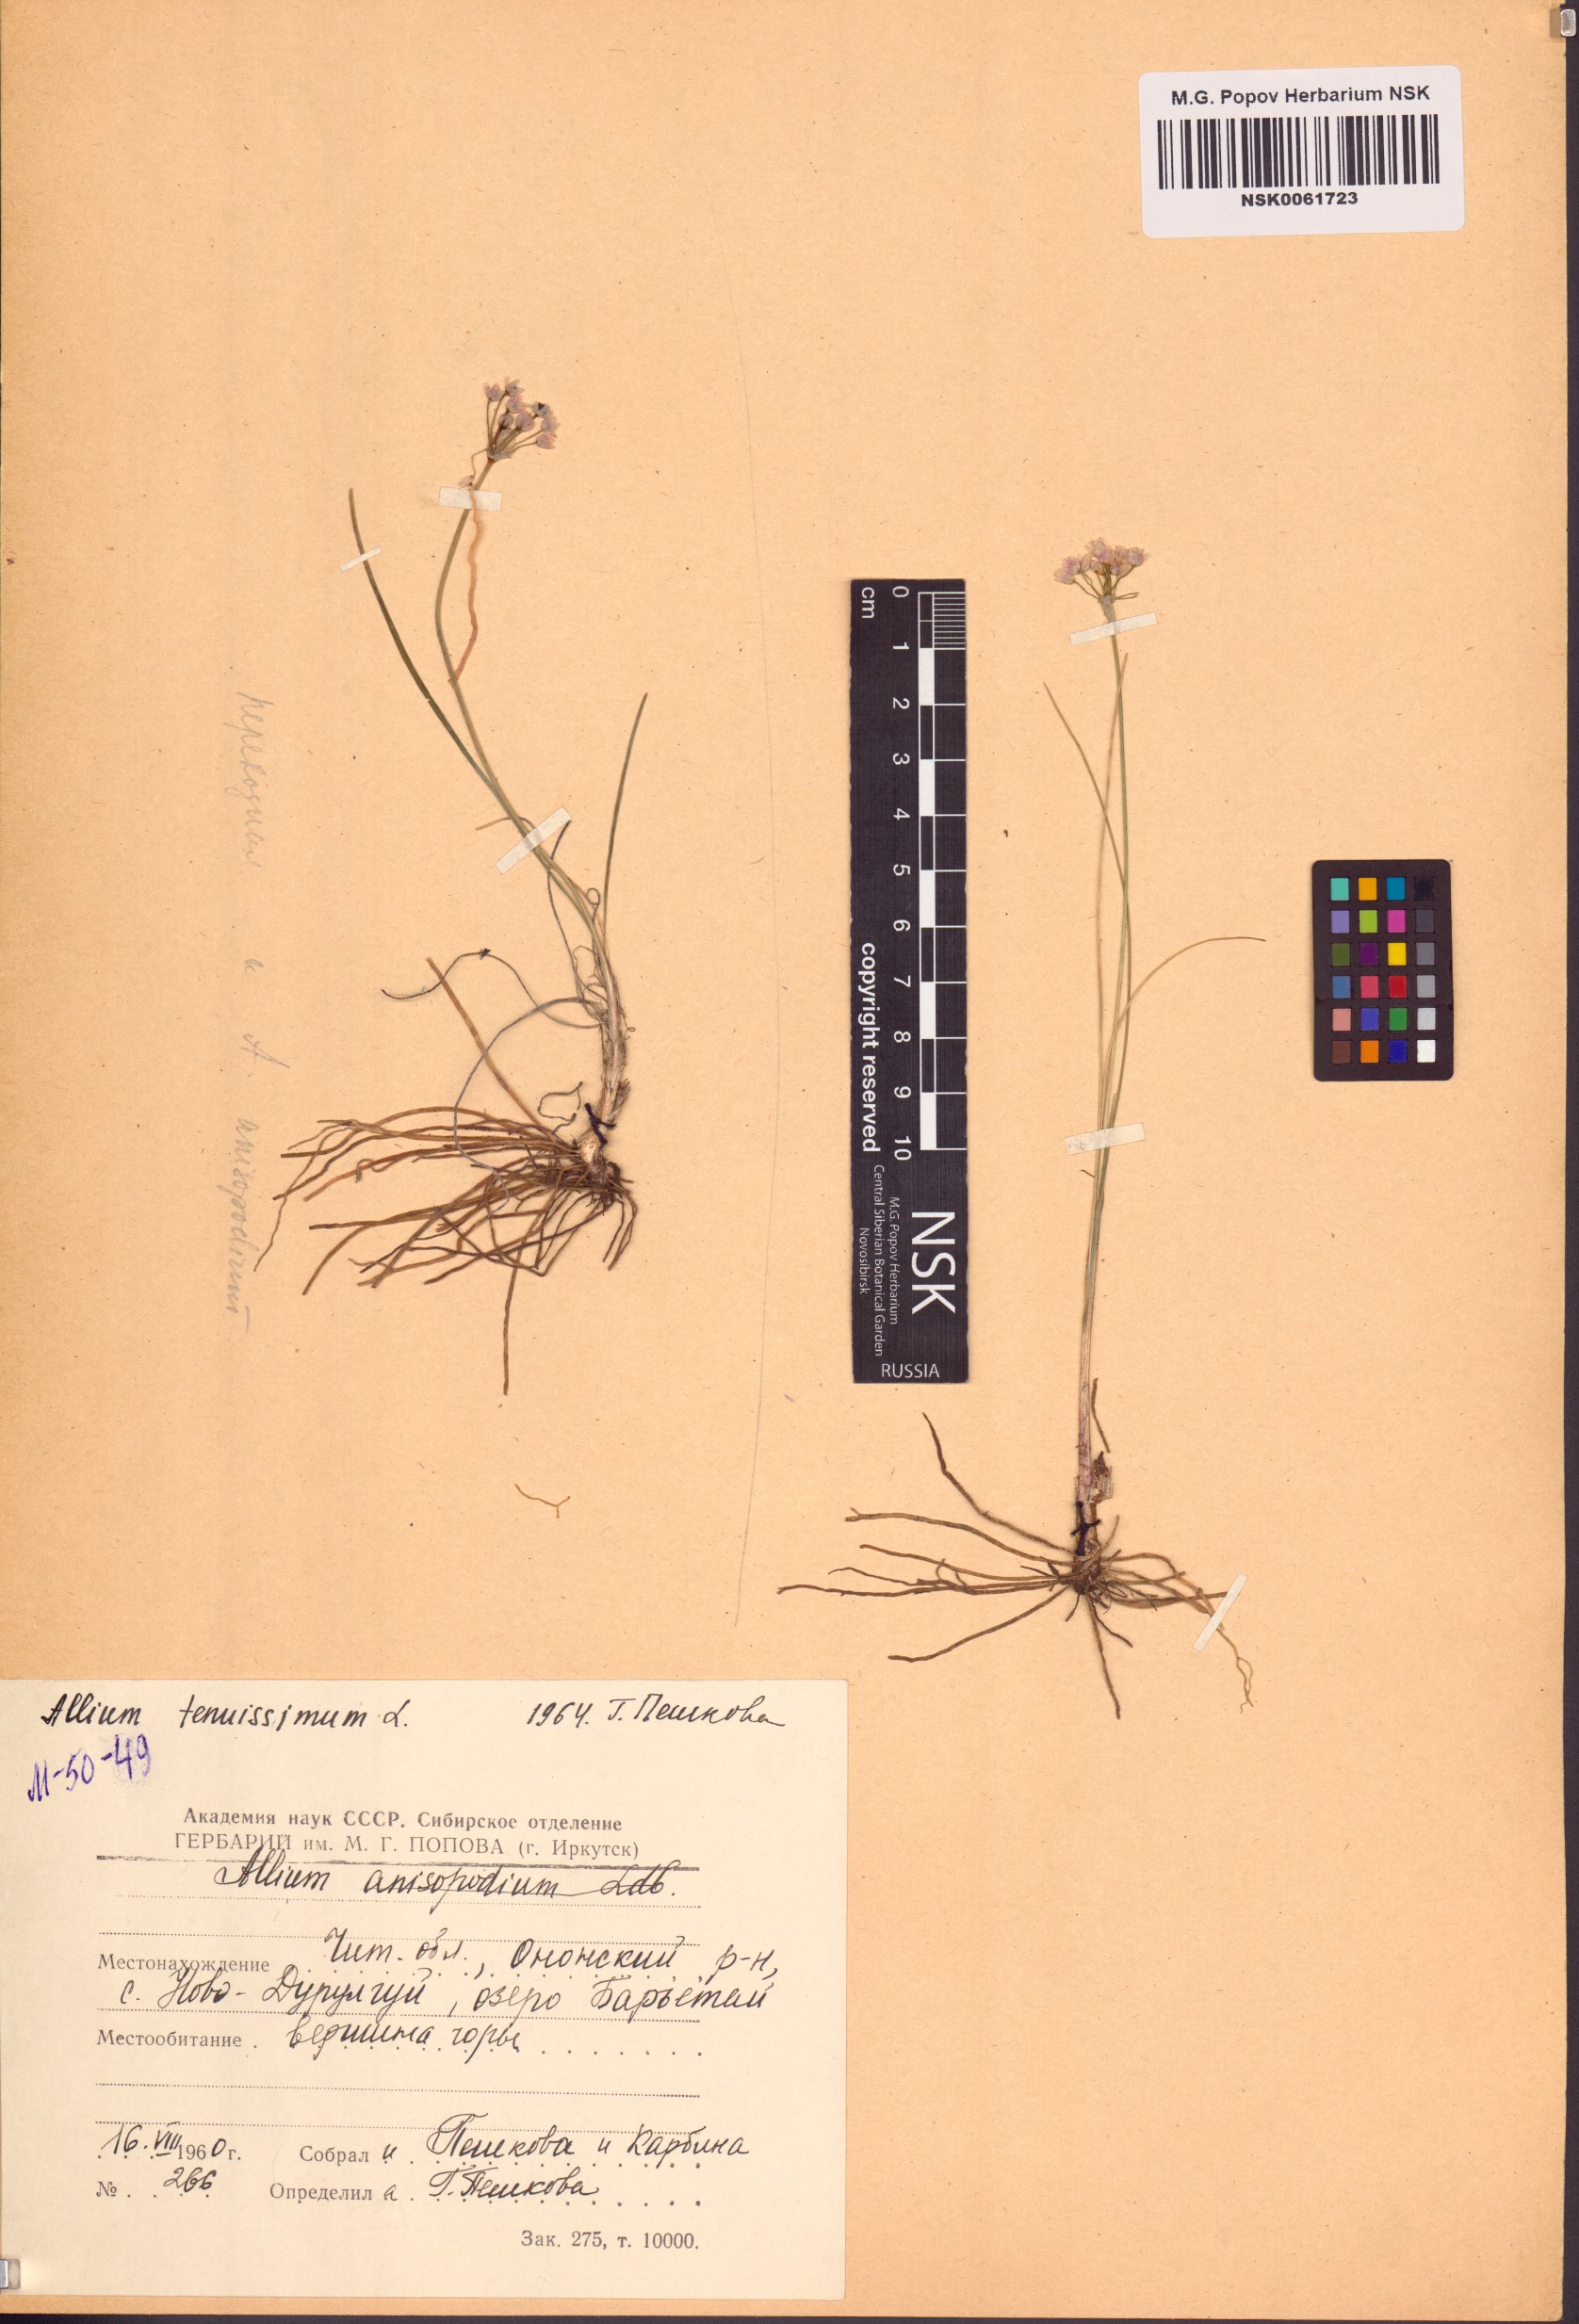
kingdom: Plantae
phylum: Tracheophyta
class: Liliopsida
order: Asparagales
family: Amaryllidaceae
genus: Allium
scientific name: Allium tenuissimum
